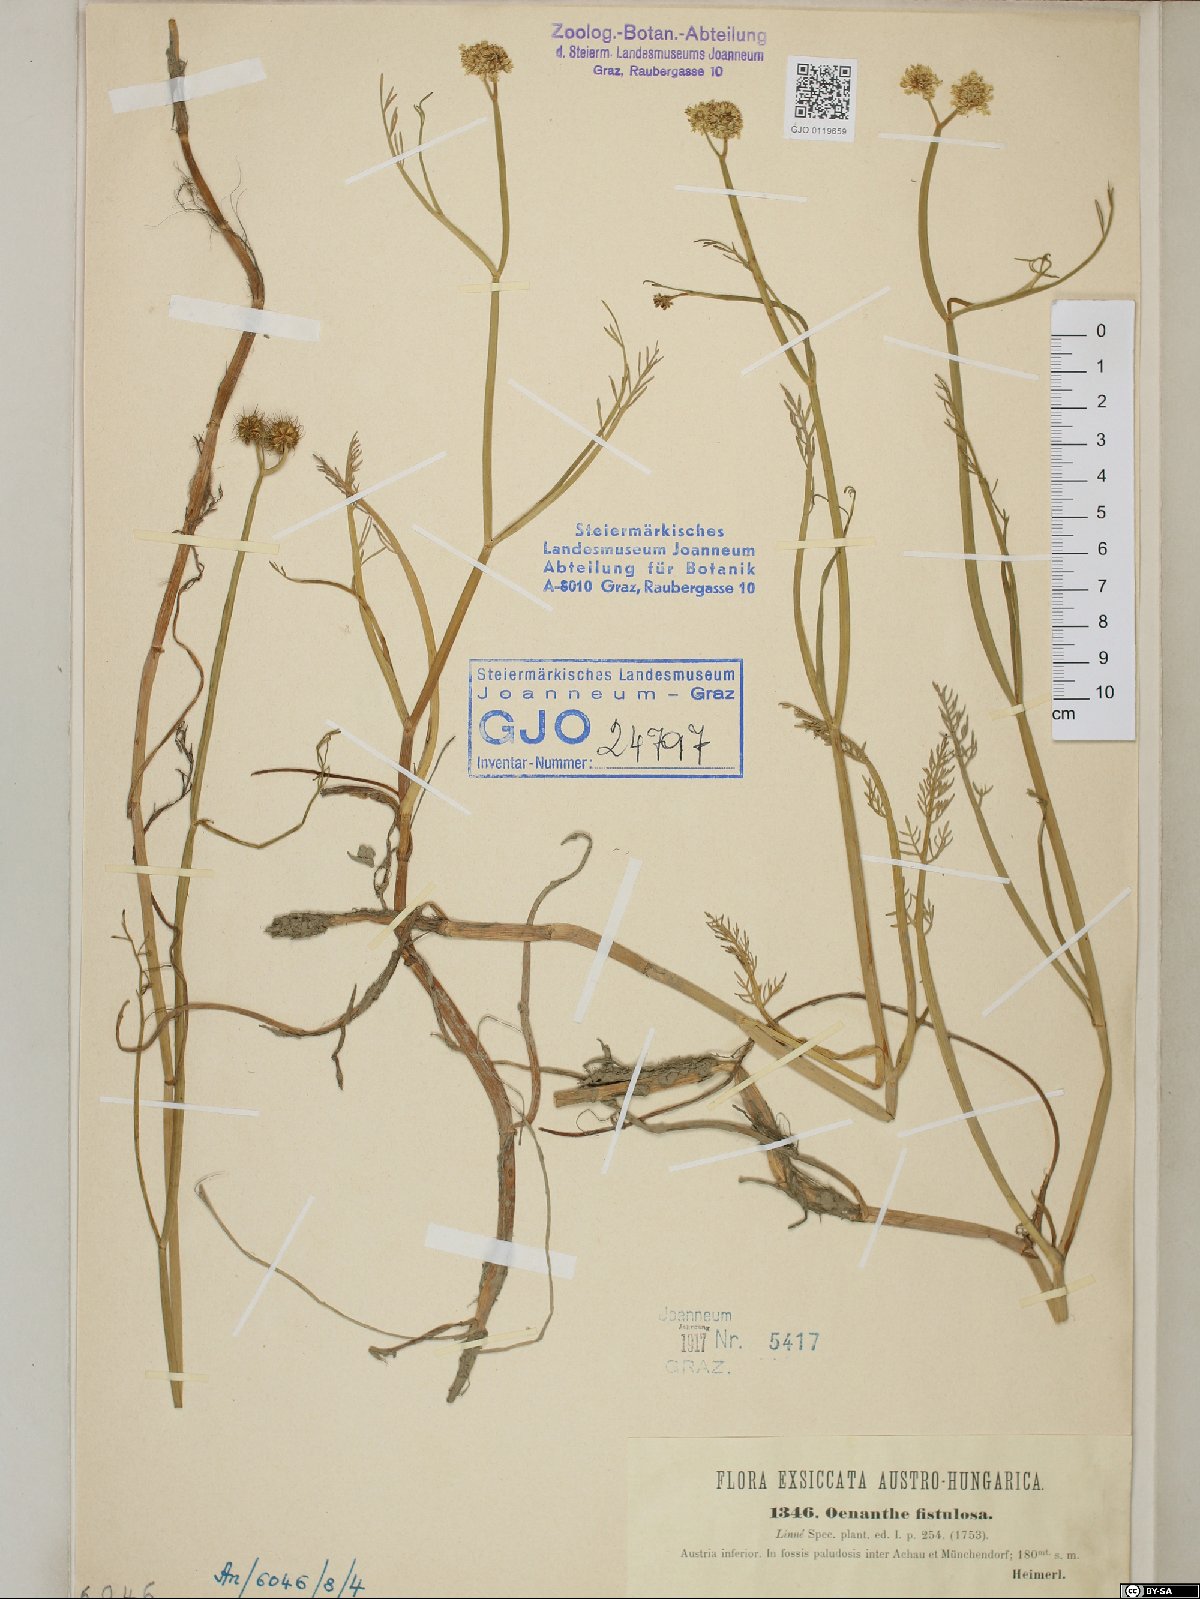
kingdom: Plantae
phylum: Tracheophyta
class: Magnoliopsida
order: Apiales
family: Apiaceae
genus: Oenanthe
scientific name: Oenanthe fistulosa
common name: Tubular water-dropwort
